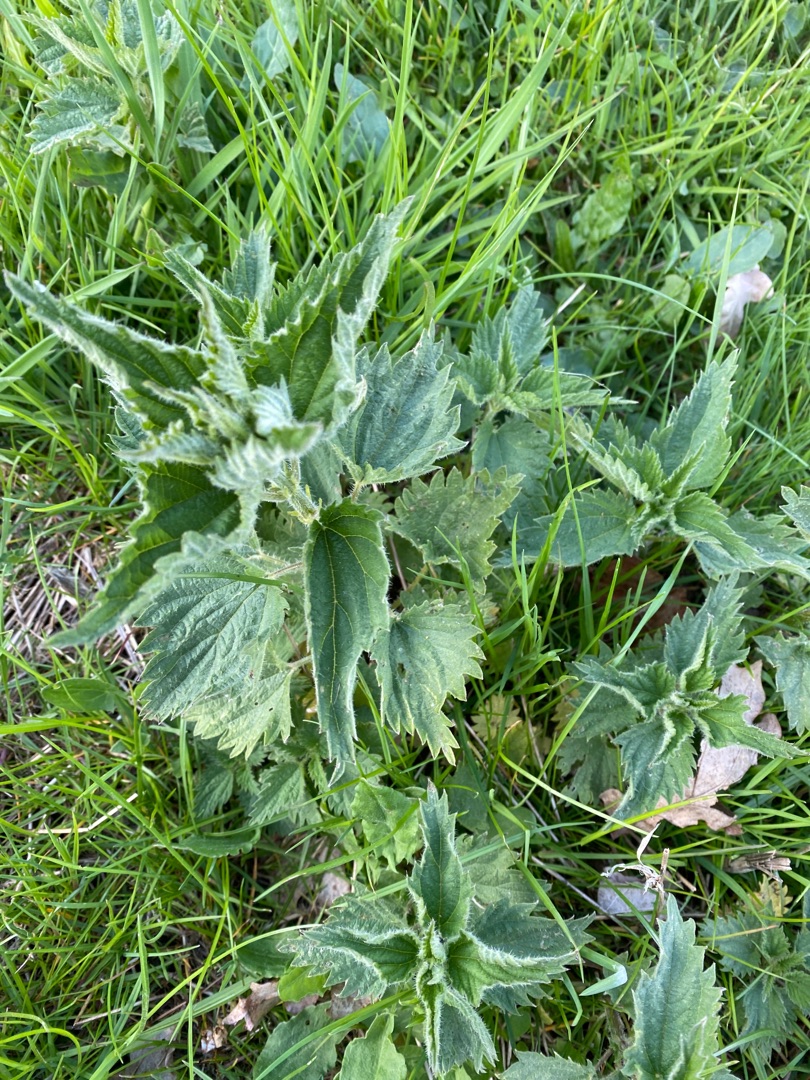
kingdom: Plantae
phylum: Tracheophyta
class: Magnoliopsida
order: Rosales
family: Urticaceae
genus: Urtica
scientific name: Urtica dioica
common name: Stor nælde
